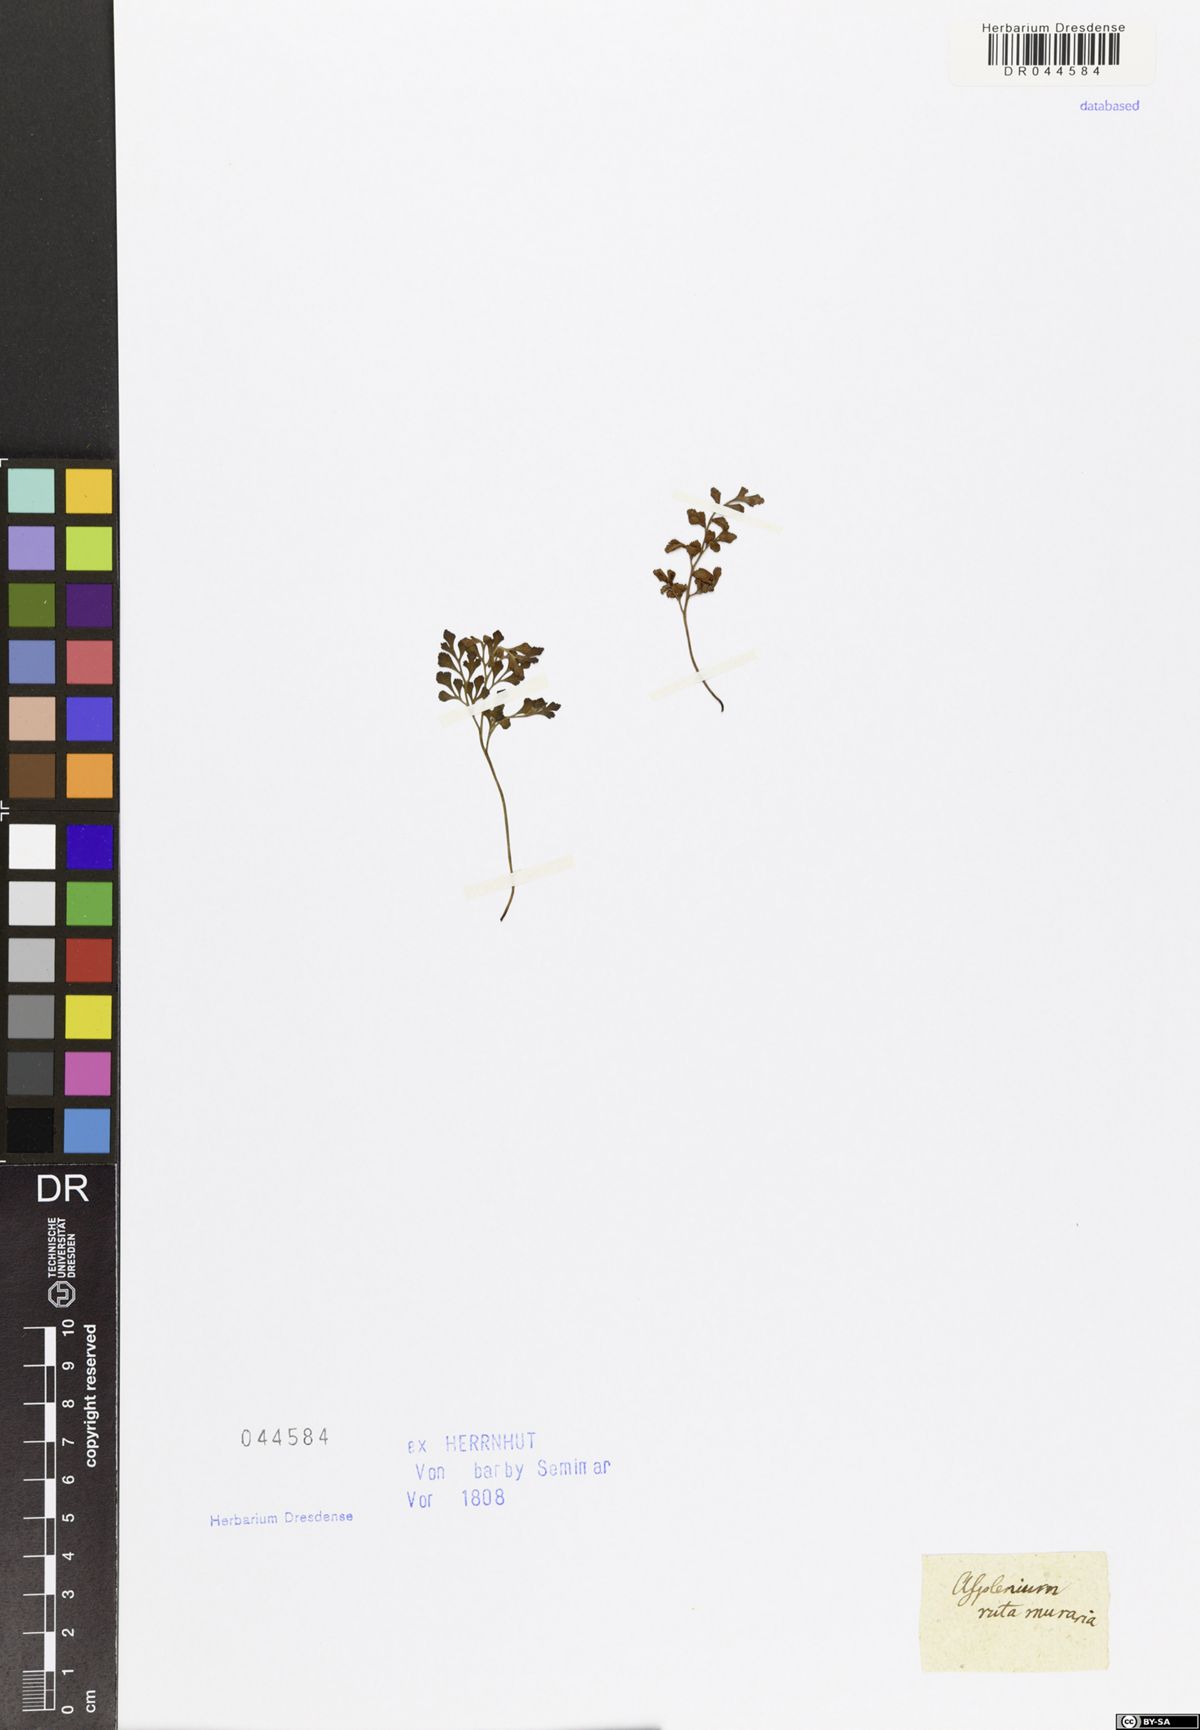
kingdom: Plantae
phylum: Tracheophyta
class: Polypodiopsida
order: Polypodiales
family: Aspleniaceae
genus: Asplenium
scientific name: Asplenium ruta-muraria
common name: Wall-rue
